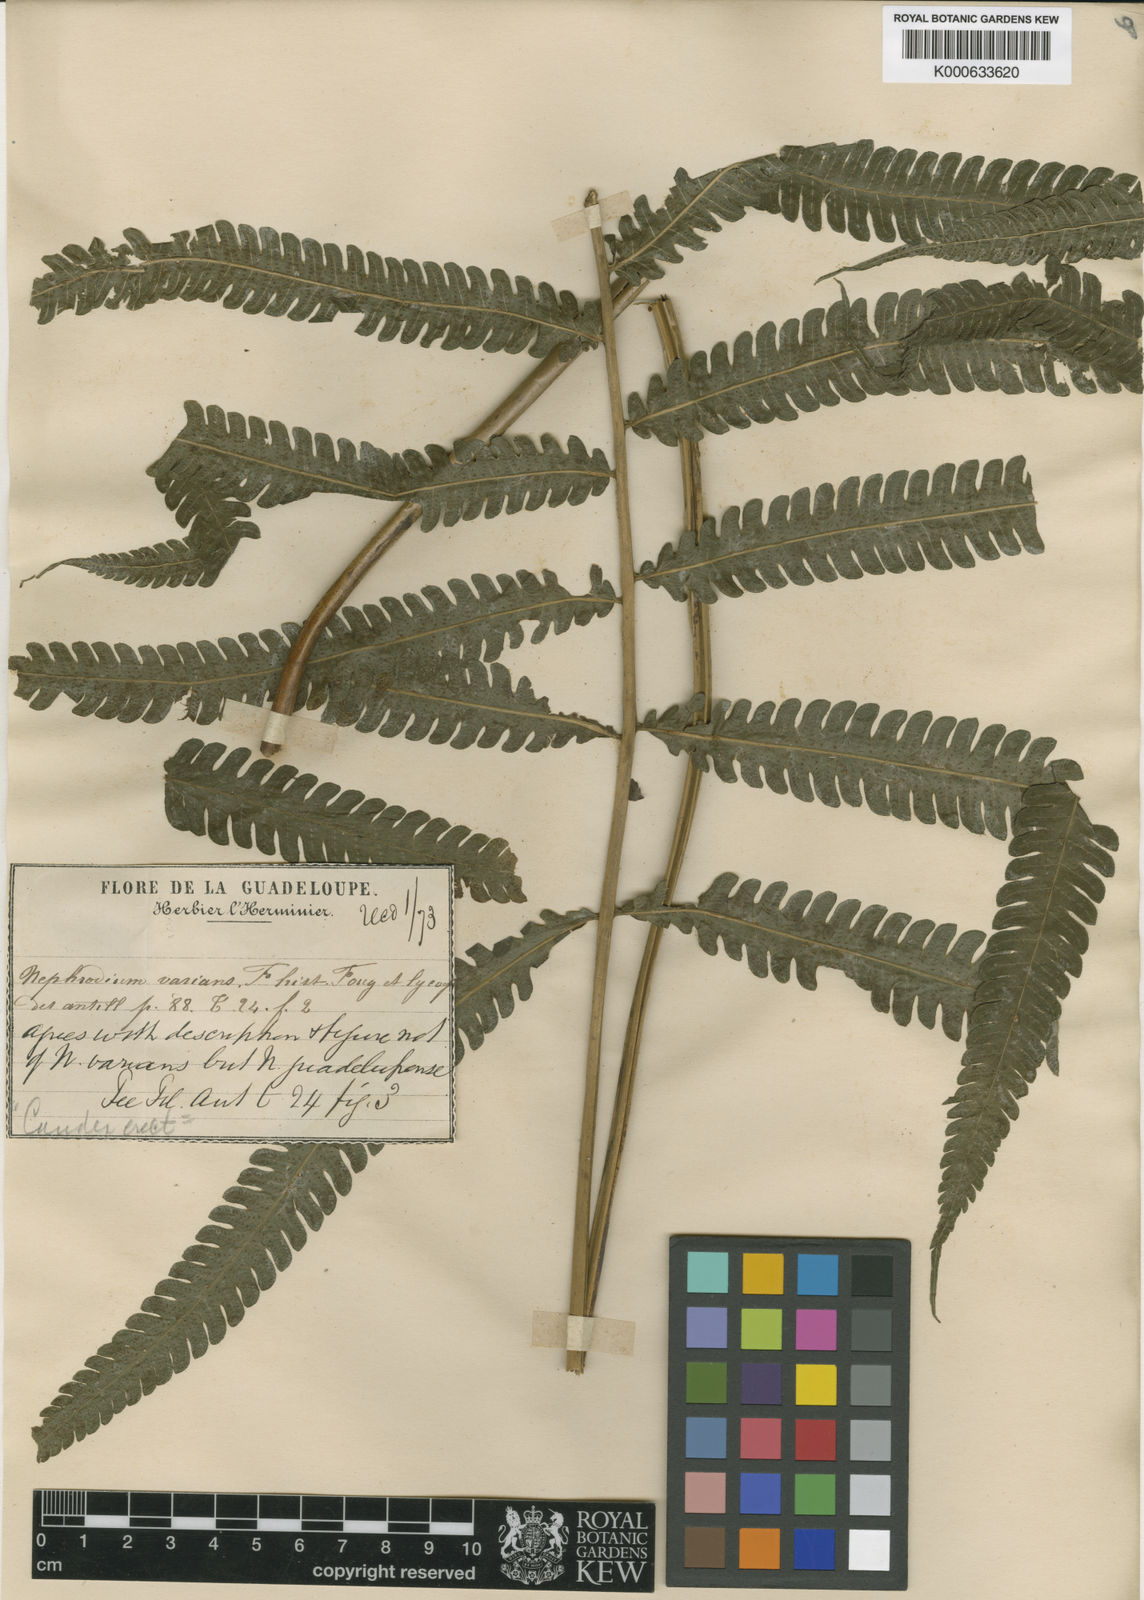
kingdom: Plantae
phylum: Tracheophyta
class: Polypodiopsida
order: Polypodiales
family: Thelypteridaceae
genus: Goniopteris
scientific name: Goniopteris
